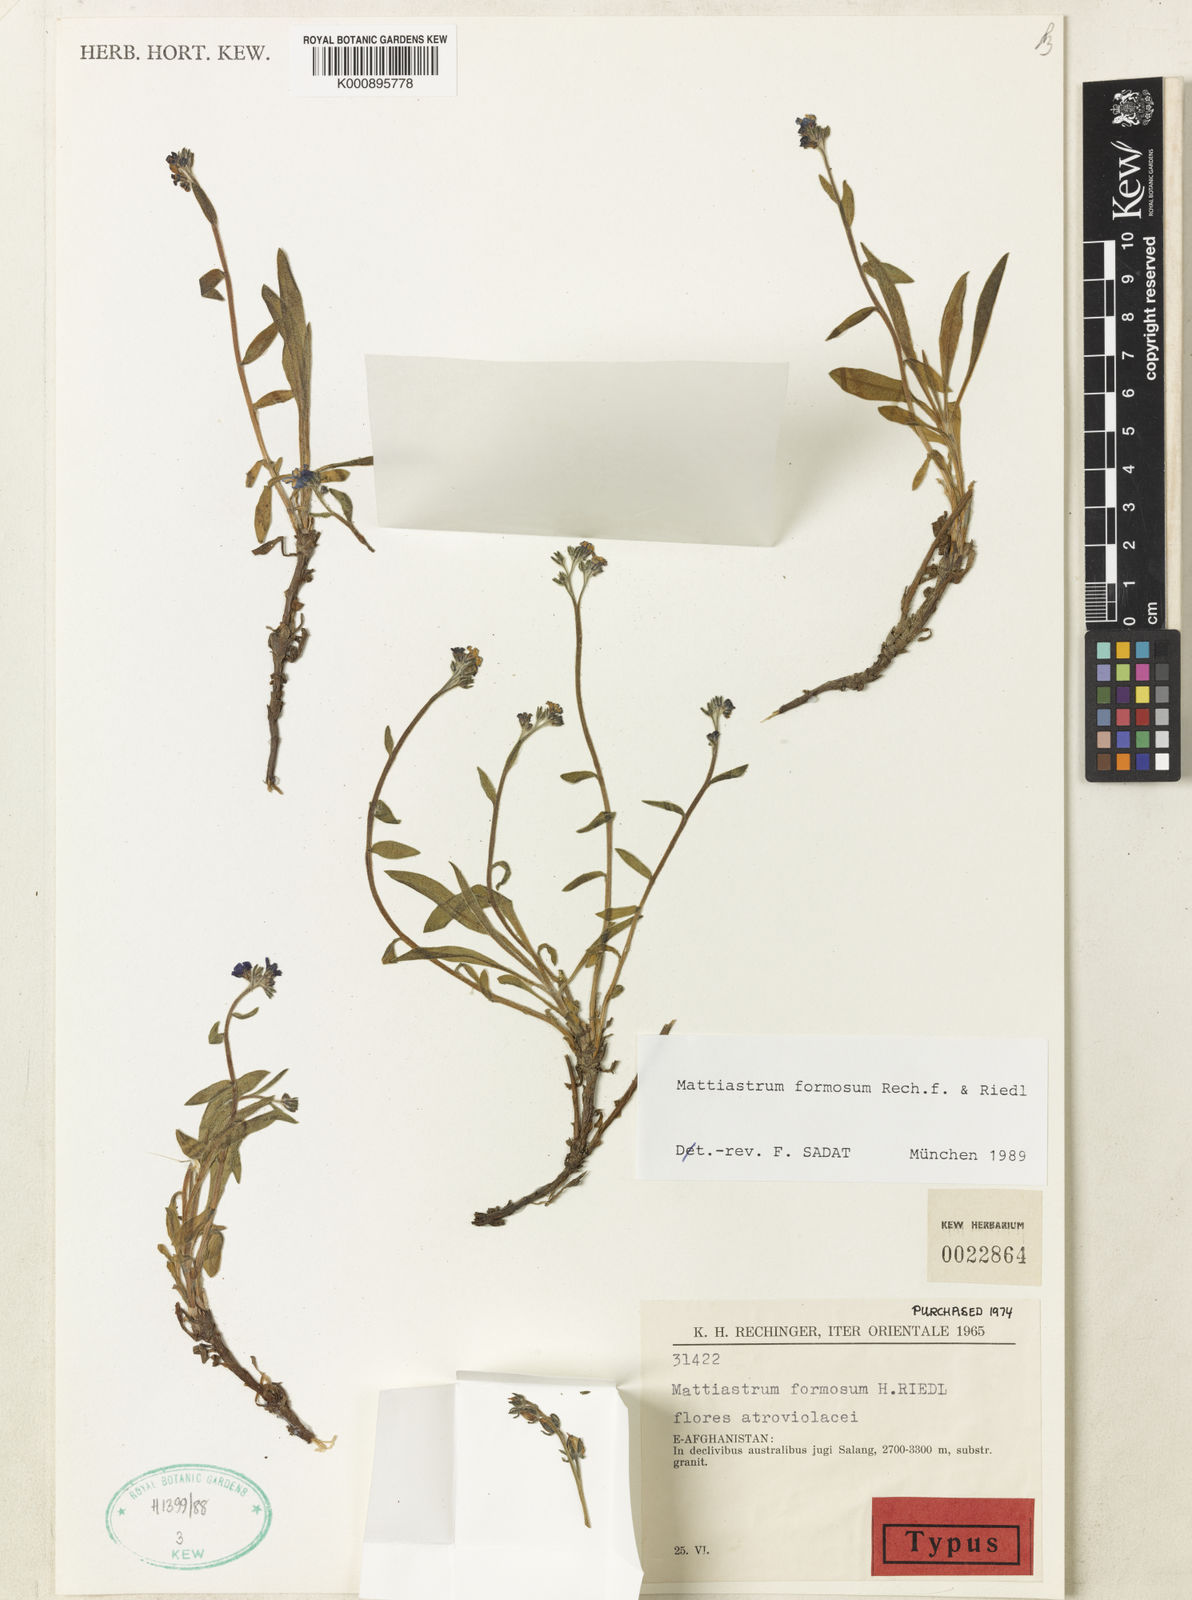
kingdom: Plantae
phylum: Tracheophyta
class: Magnoliopsida
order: Boraginales
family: Boraginaceae
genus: Paracaryum
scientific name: Paracaryum rechingeri
